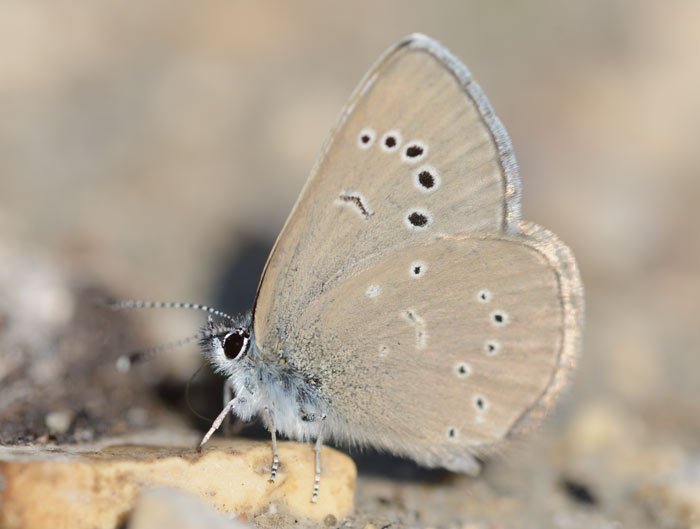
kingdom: Animalia
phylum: Arthropoda
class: Insecta
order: Lepidoptera
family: Lycaenidae
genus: Glaucopsyche
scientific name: Glaucopsyche lygdamus
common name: Silvery Blue
